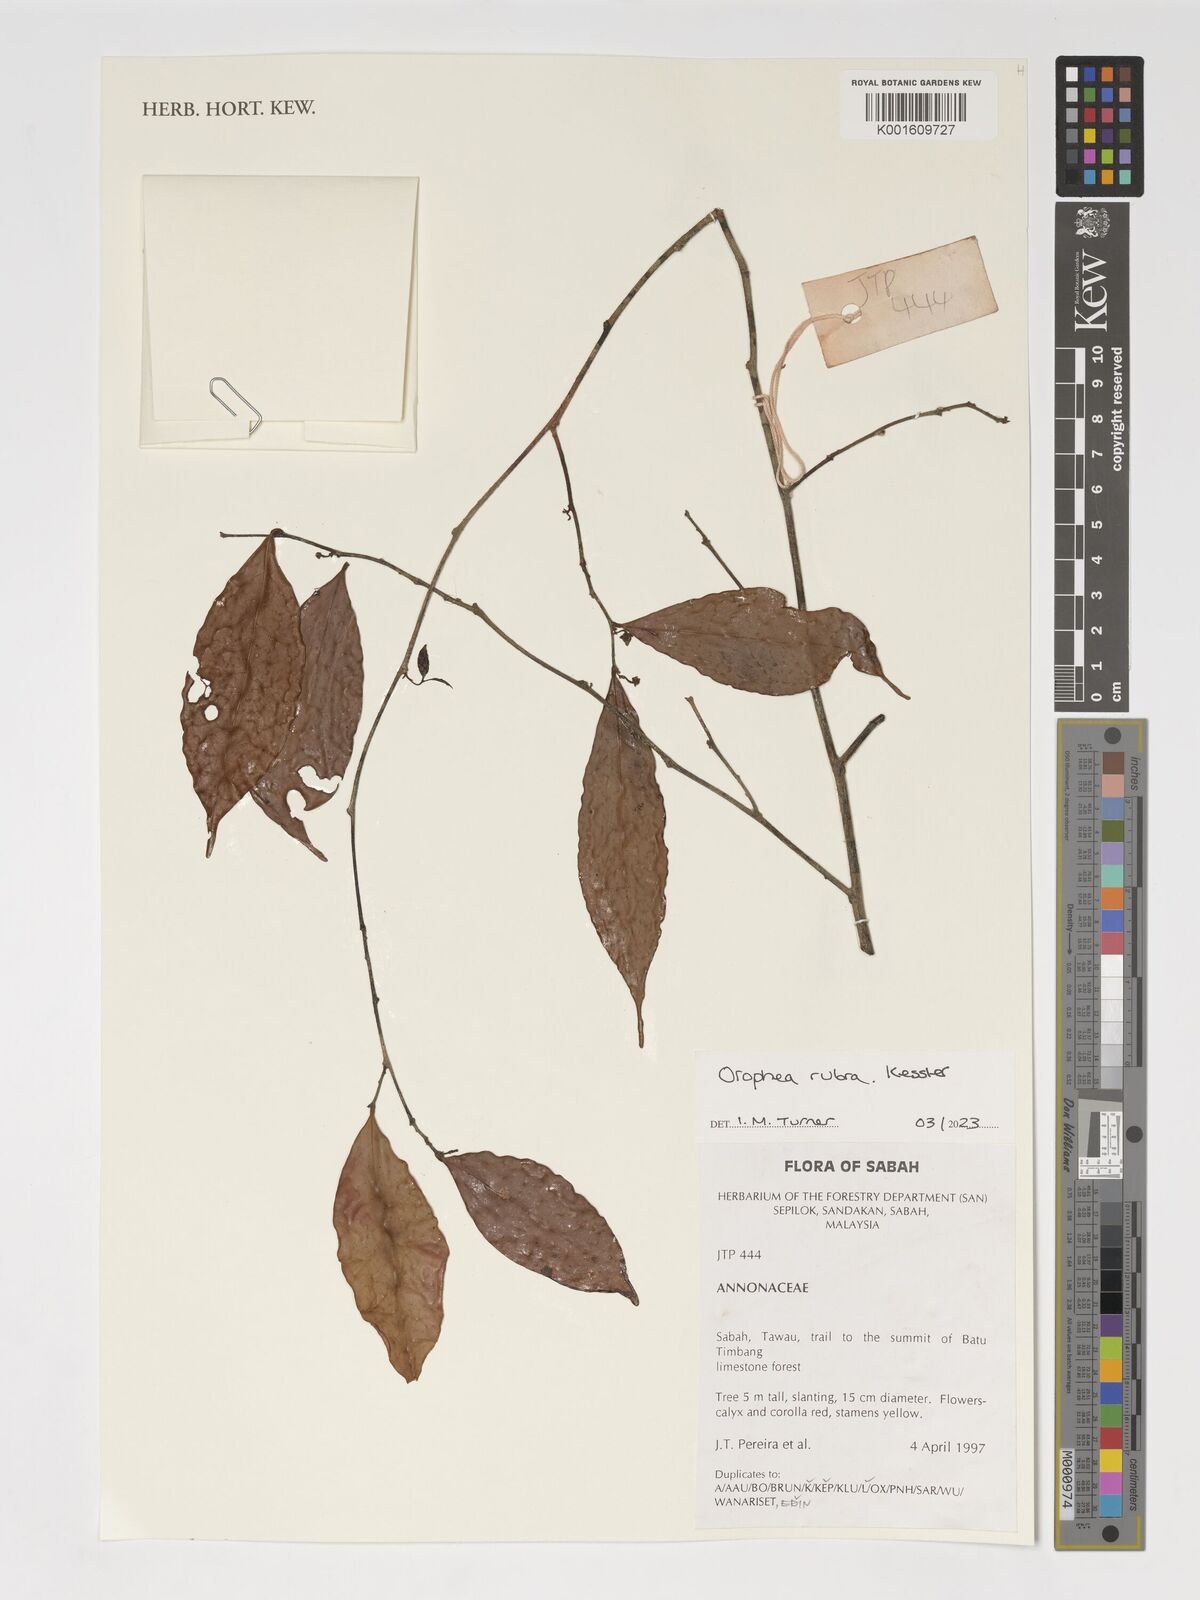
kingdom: Plantae
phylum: Tracheophyta
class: Magnoliopsida
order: Magnoliales
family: Annonaceae
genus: Orophea
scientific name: Orophea rubra
